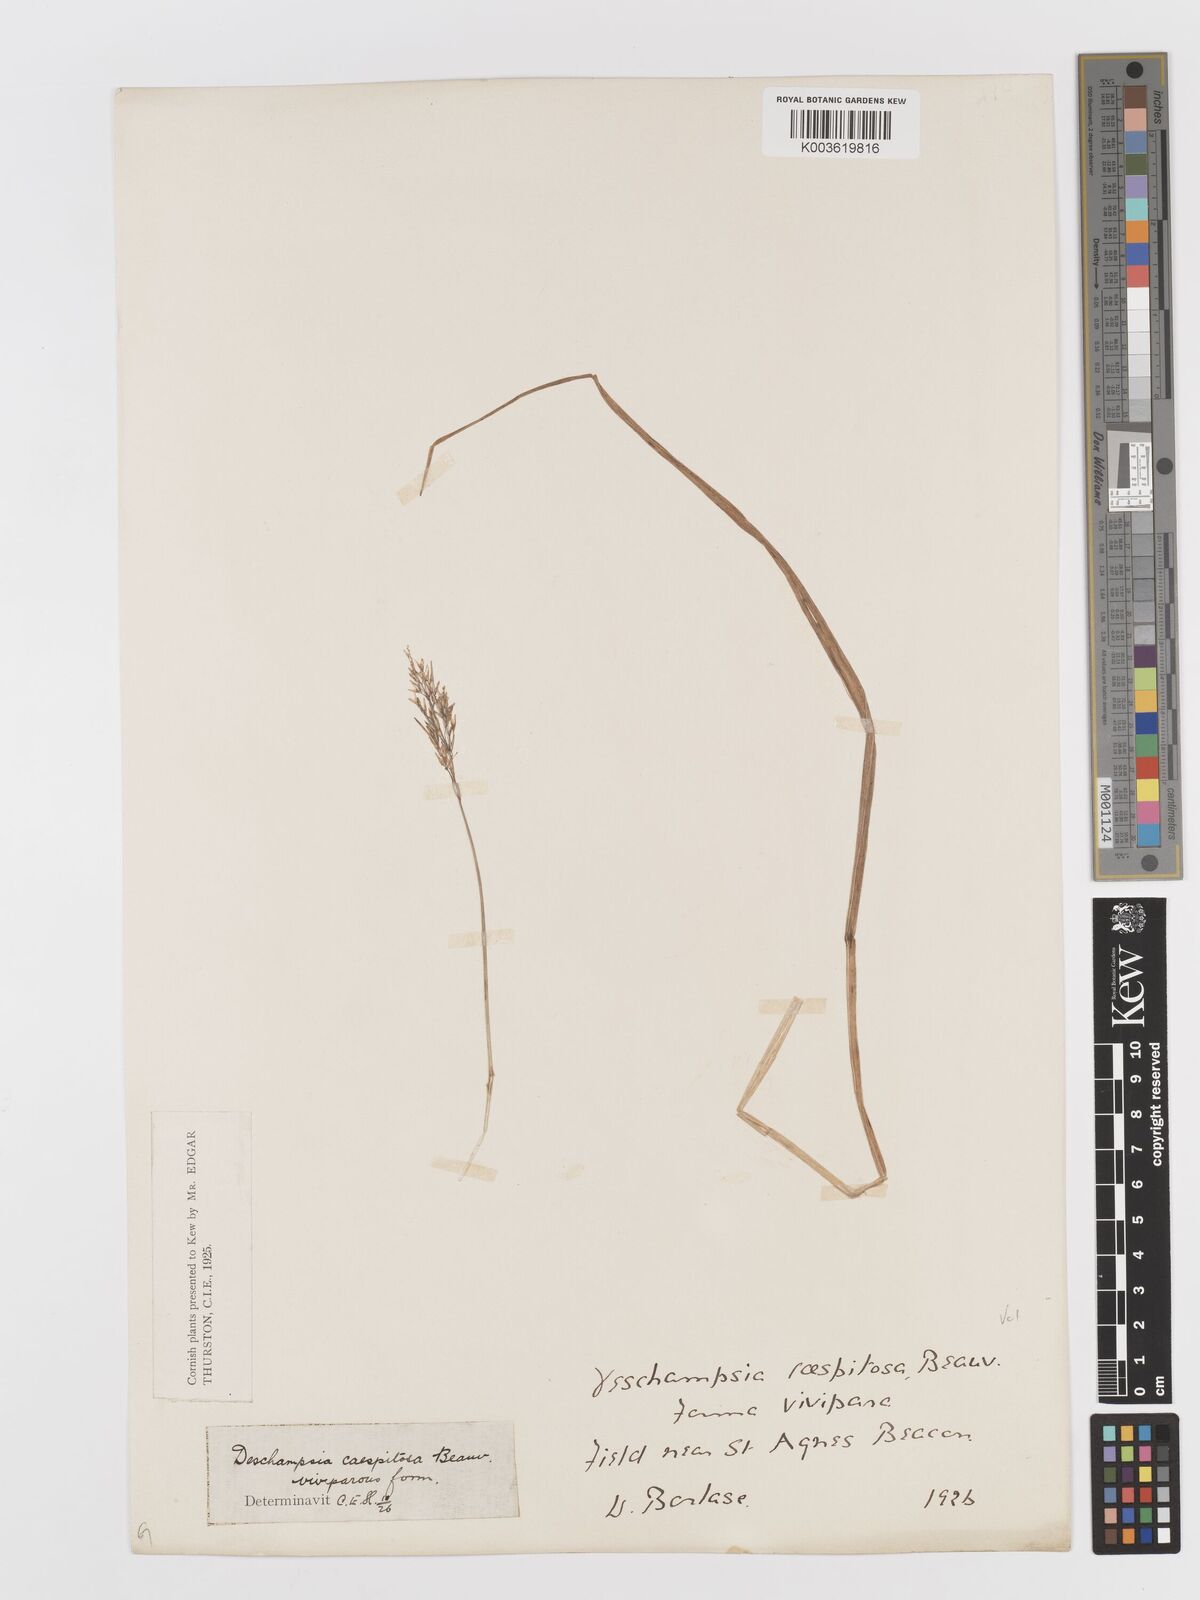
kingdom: Plantae
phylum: Tracheophyta
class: Liliopsida
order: Poales
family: Poaceae
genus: Deschampsia
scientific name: Deschampsia cespitosa
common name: Tufted hair-grass
